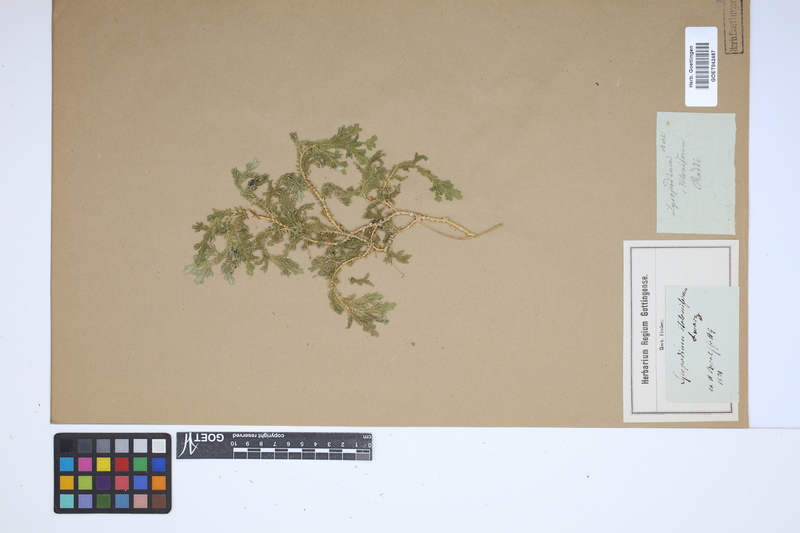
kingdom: Plantae
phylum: Tracheophyta
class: Lycopodiopsida
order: Selaginellales
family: Selaginellaceae
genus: Selaginella
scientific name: Selaginella intermedia
